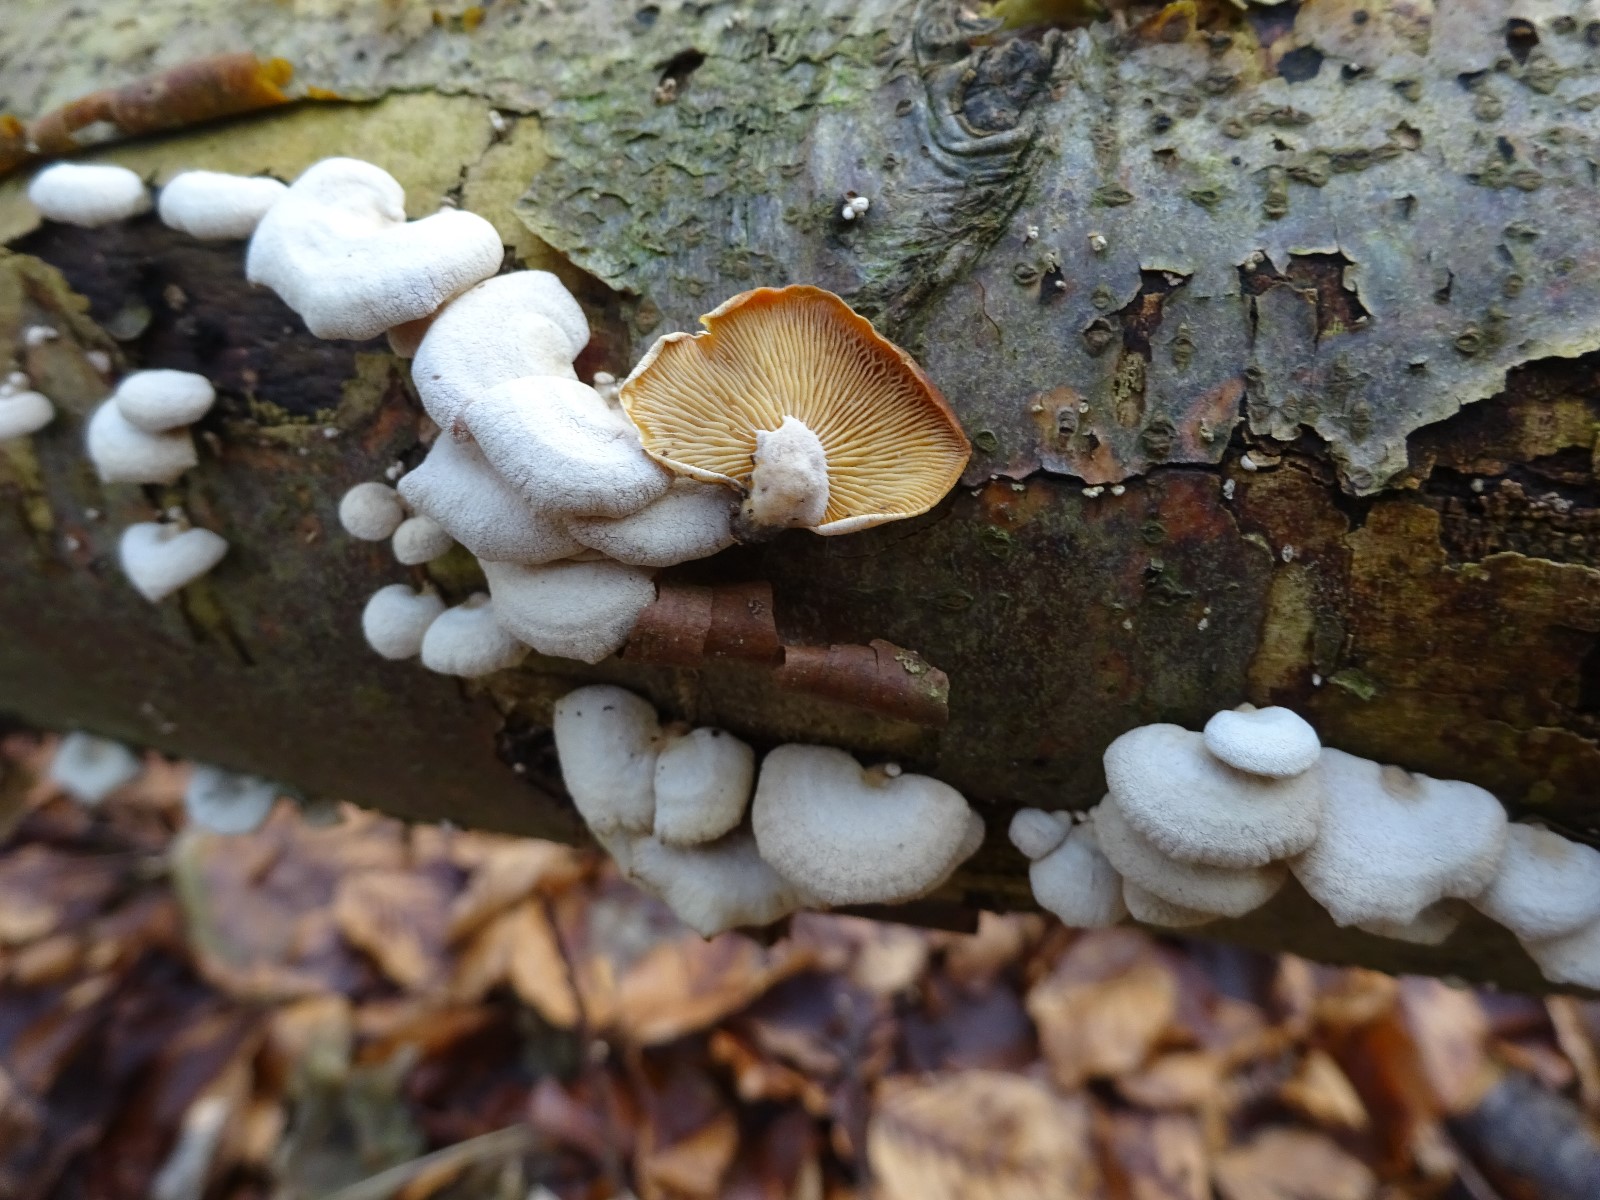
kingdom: Fungi
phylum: Basidiomycota
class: Agaricomycetes
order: Agaricales
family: Mycenaceae
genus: Panellus
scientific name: Panellus stipticus
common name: kliddet epaulethat
